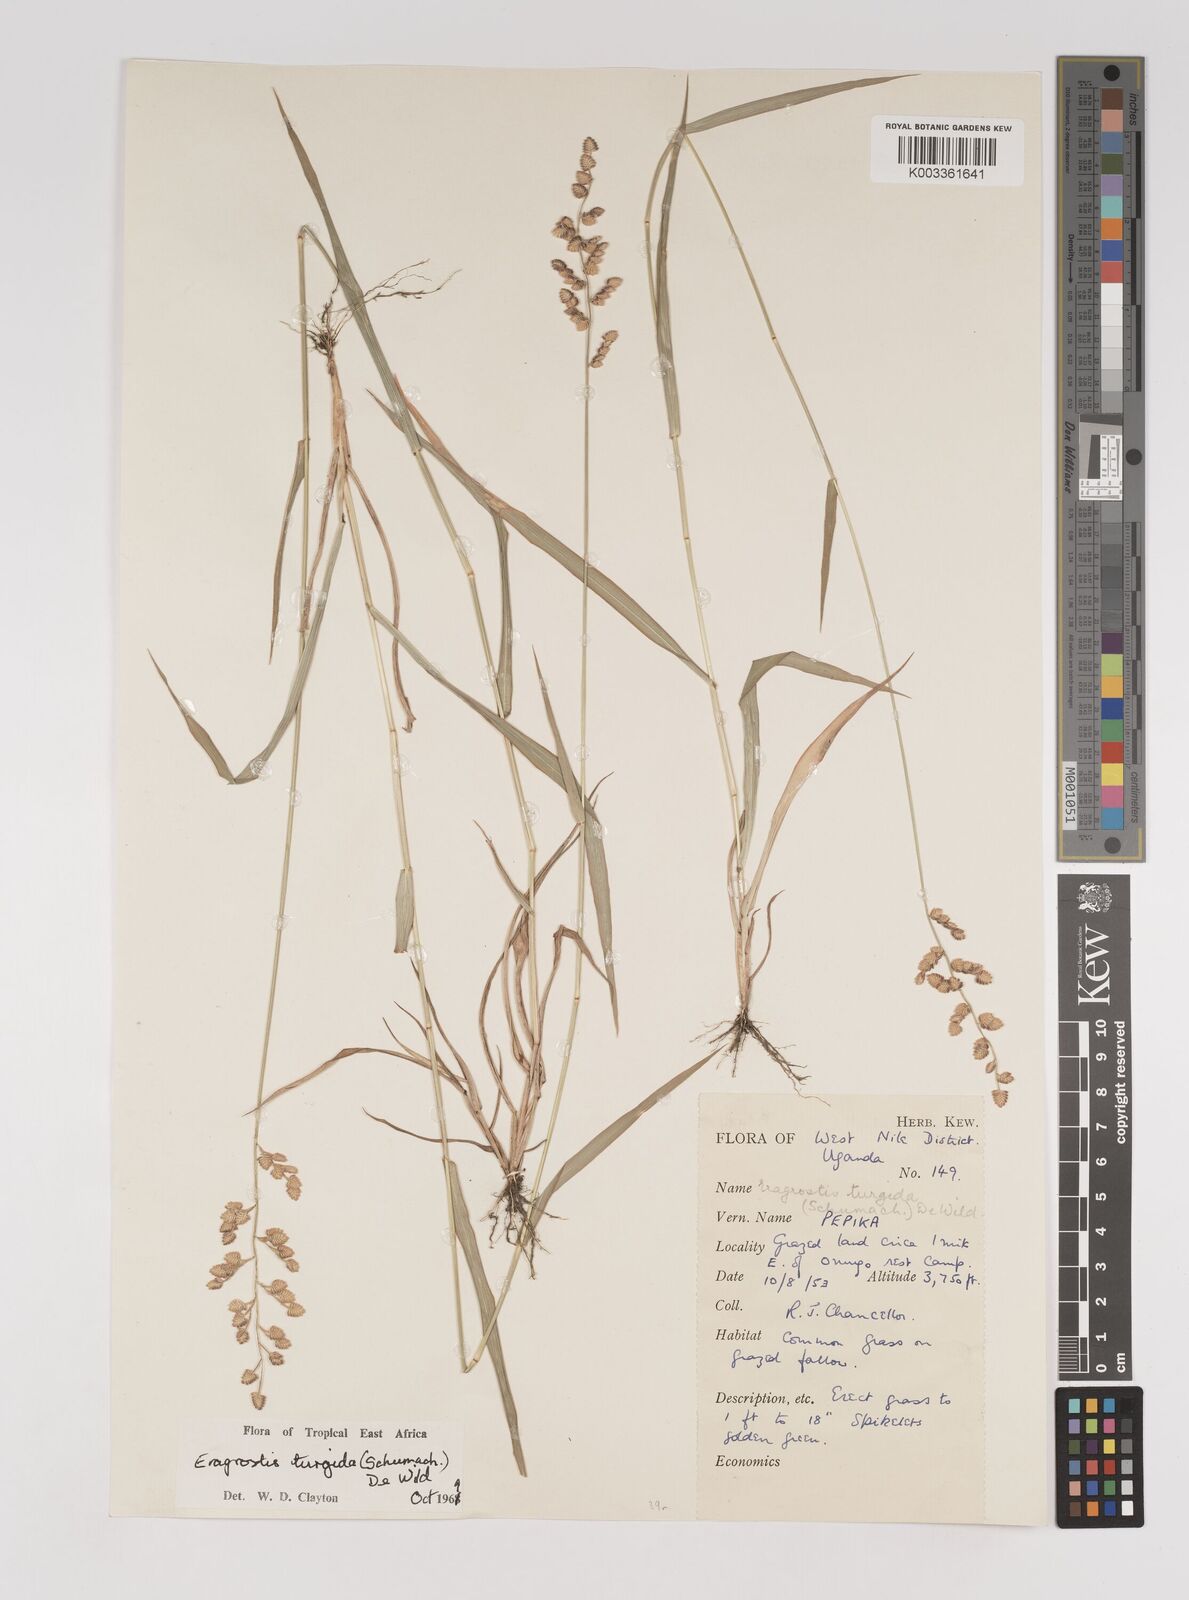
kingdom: Plantae
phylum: Tracheophyta
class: Liliopsida
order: Poales
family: Poaceae
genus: Eragrostis
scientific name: Eragrostis turgida
